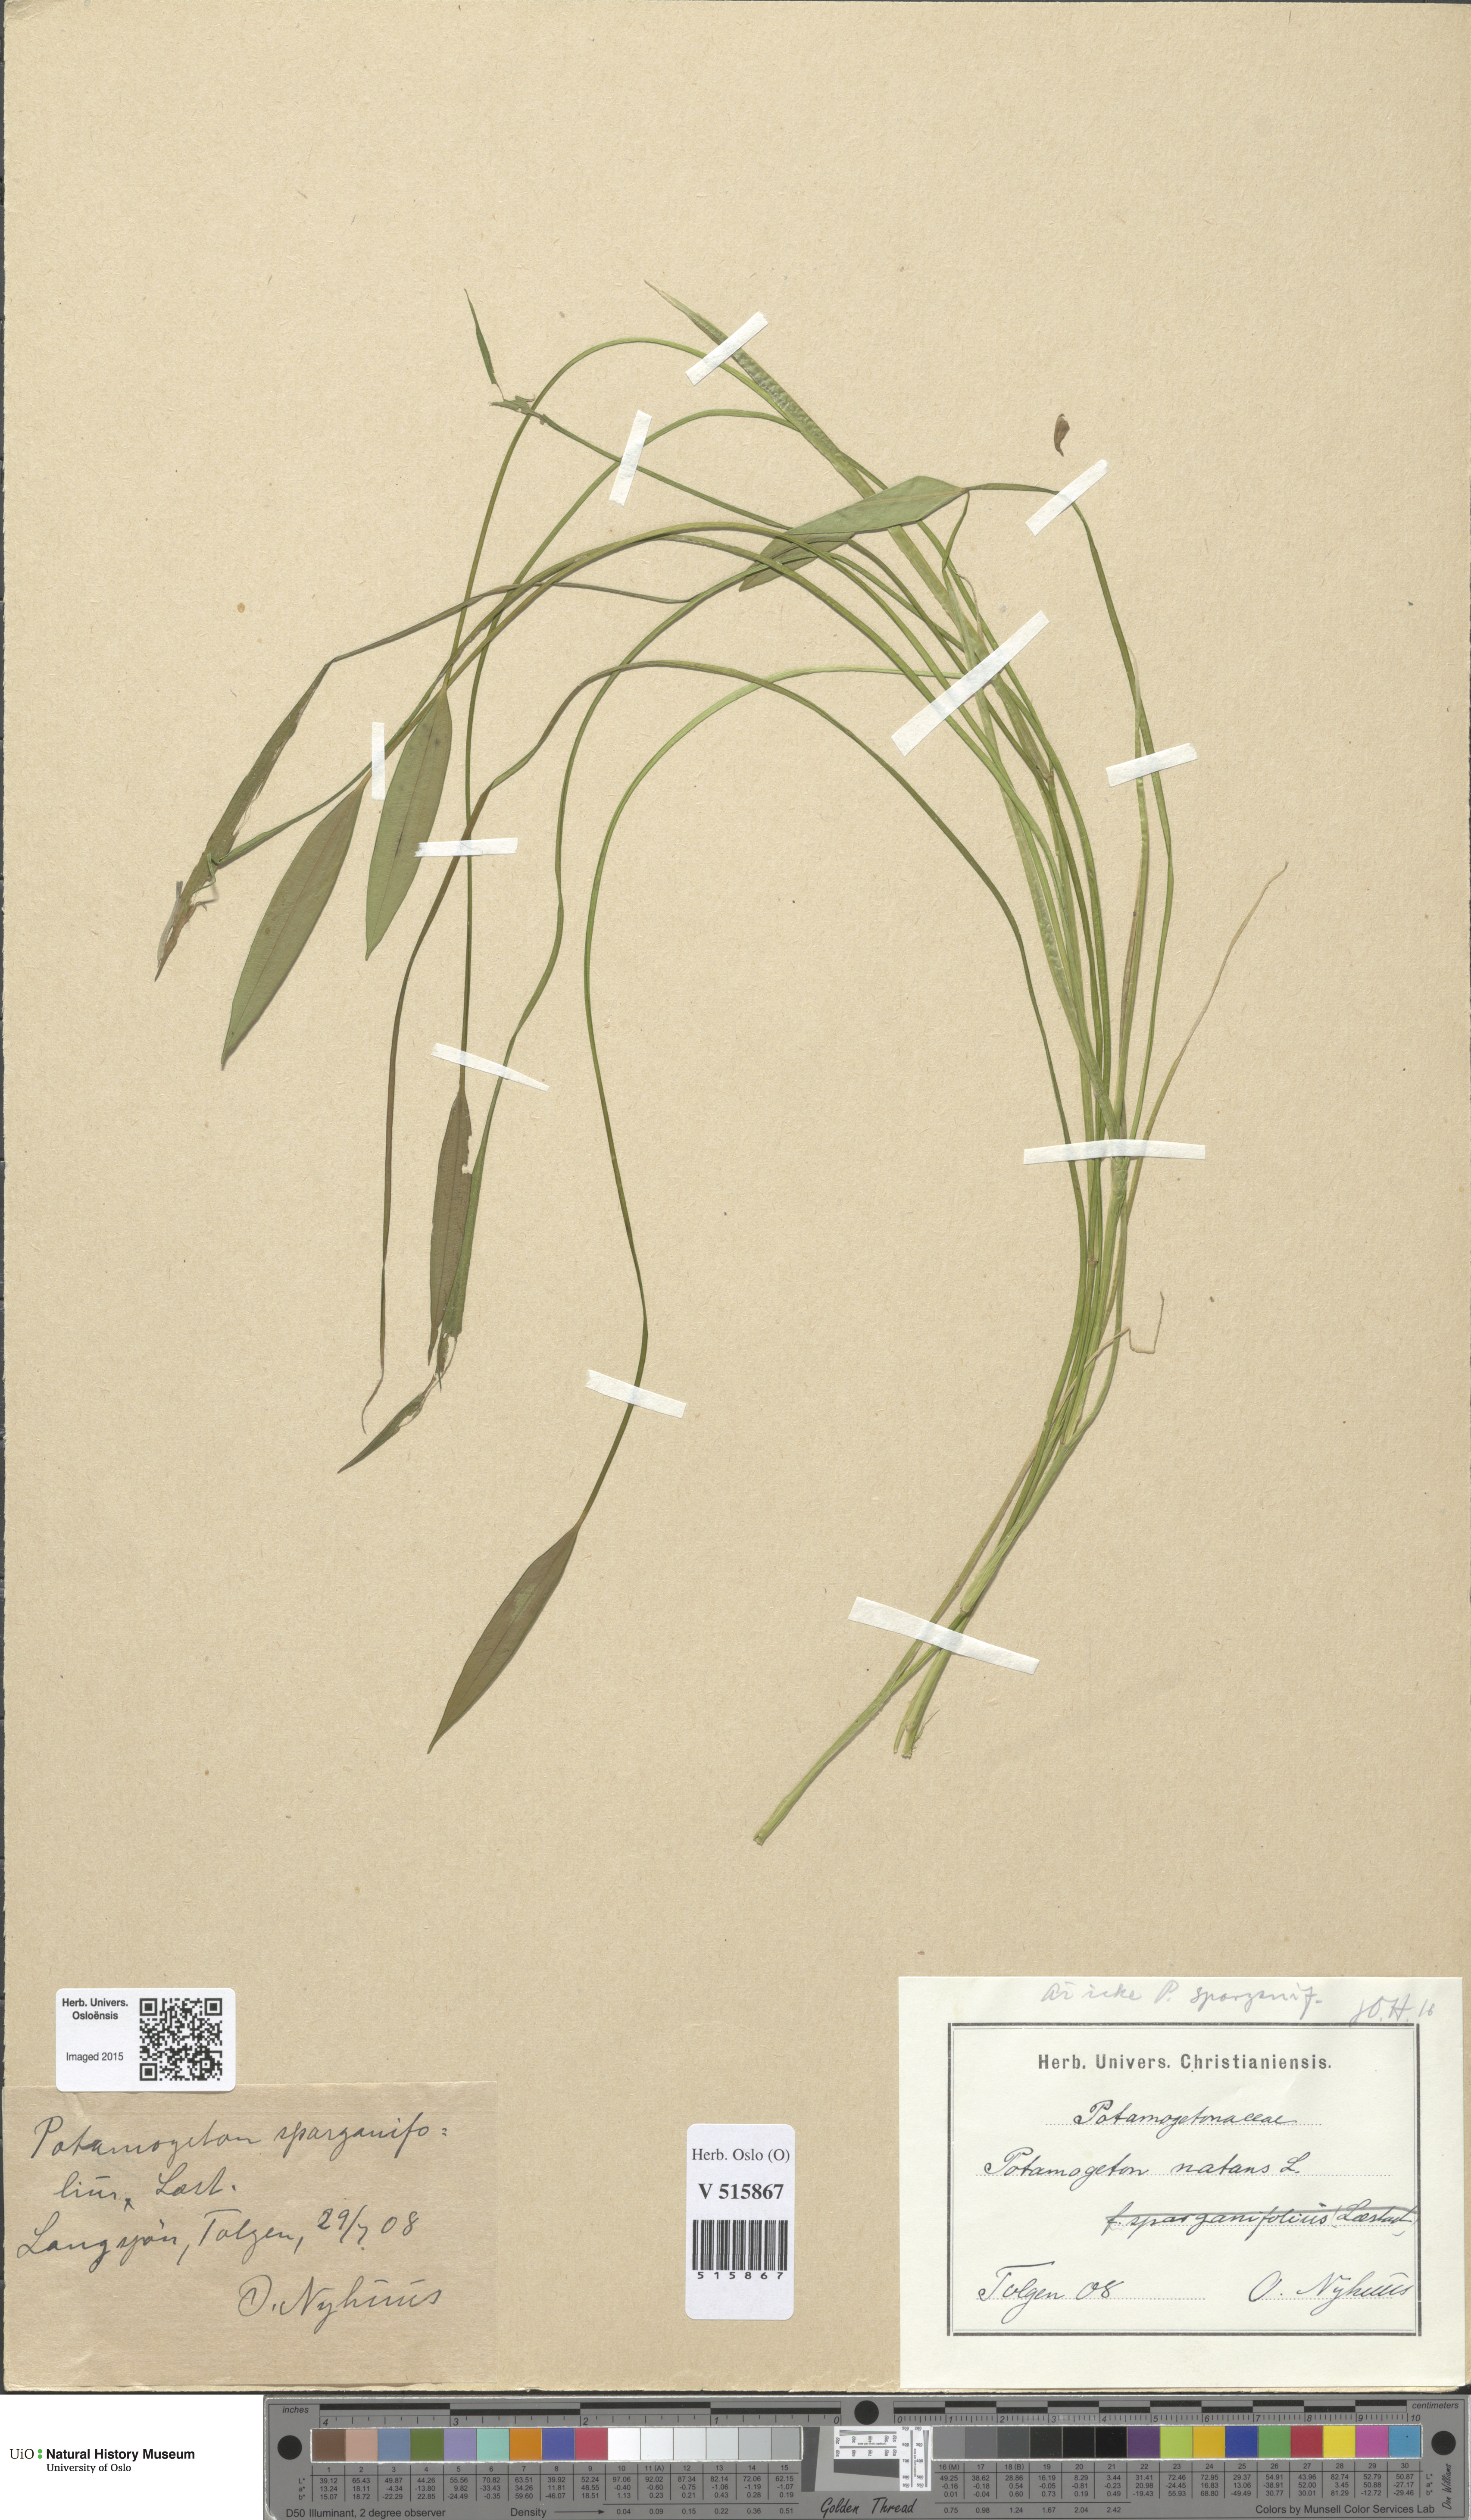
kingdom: Plantae
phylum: Tracheophyta
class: Liliopsida
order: Alismatales
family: Potamogetonaceae
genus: Potamogeton
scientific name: Potamogeton natans
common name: Broad-leaved pondweed
